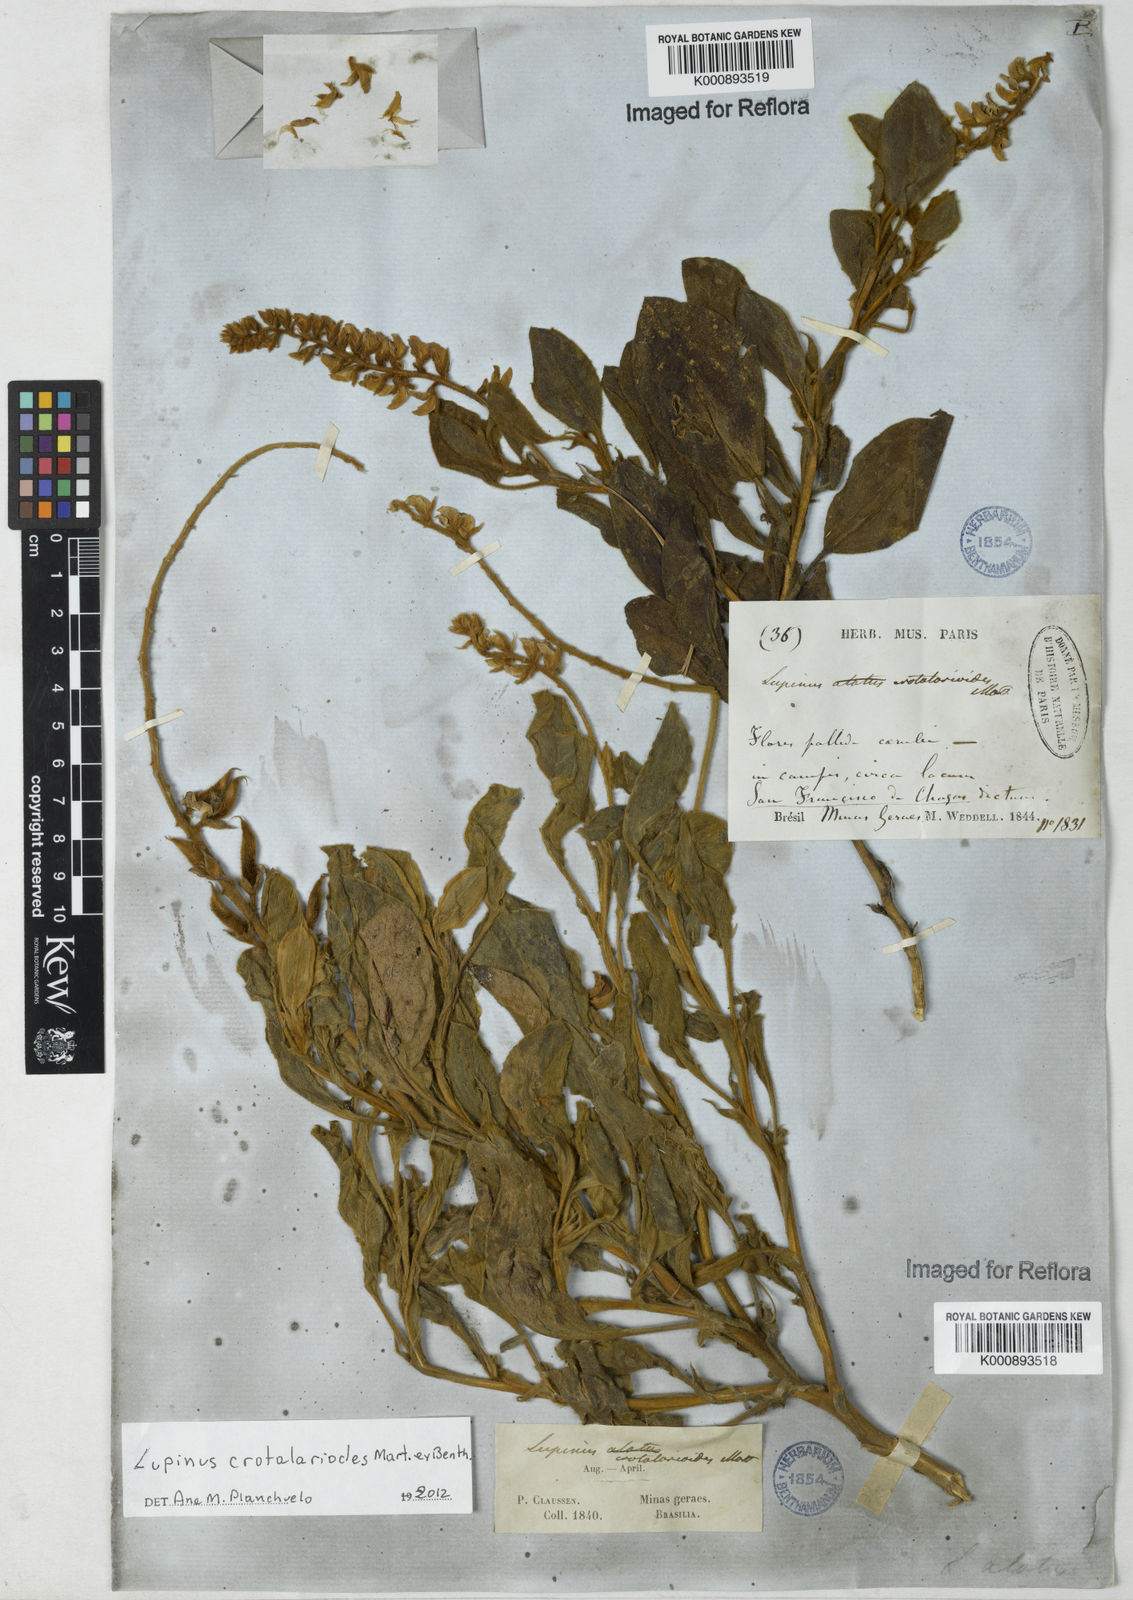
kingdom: Plantae
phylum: Tracheophyta
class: Magnoliopsida
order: Fabales
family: Fabaceae
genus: Lupinus
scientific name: Lupinus crotalarioides
